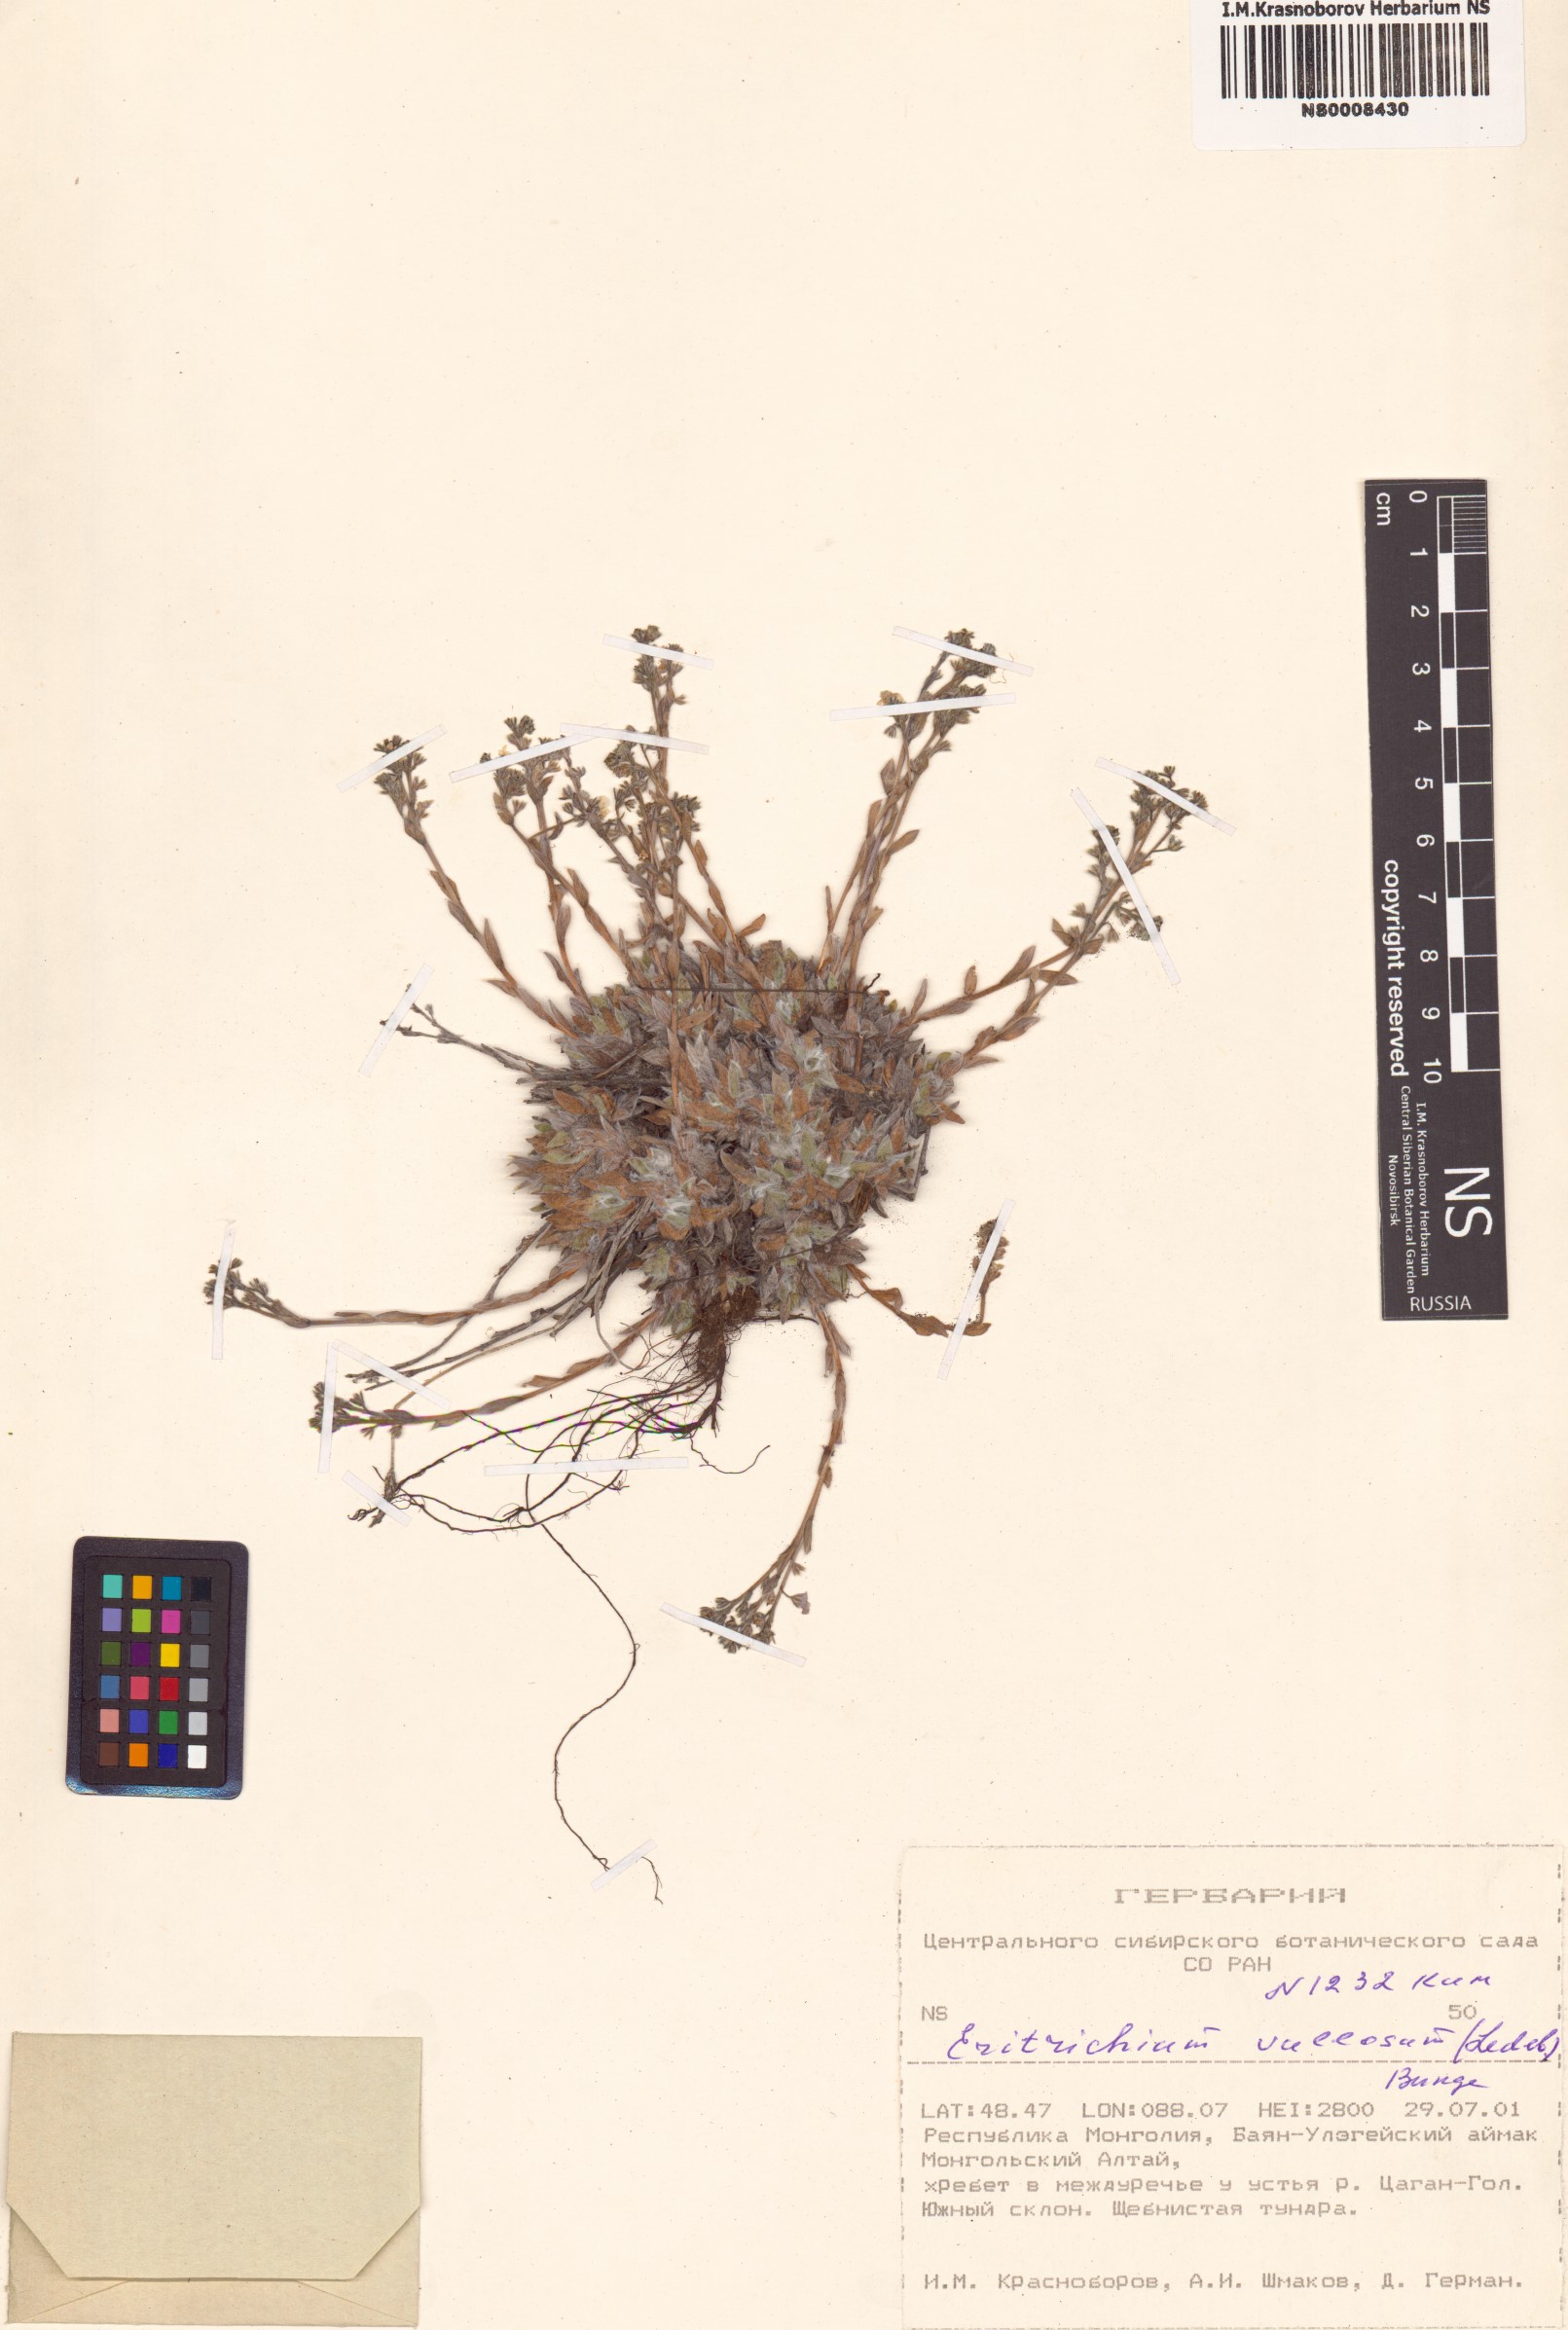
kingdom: Plantae
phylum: Tracheophyta
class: Magnoliopsida
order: Boraginales
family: Boraginaceae
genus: Eritrichium
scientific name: Eritrichium villosum
